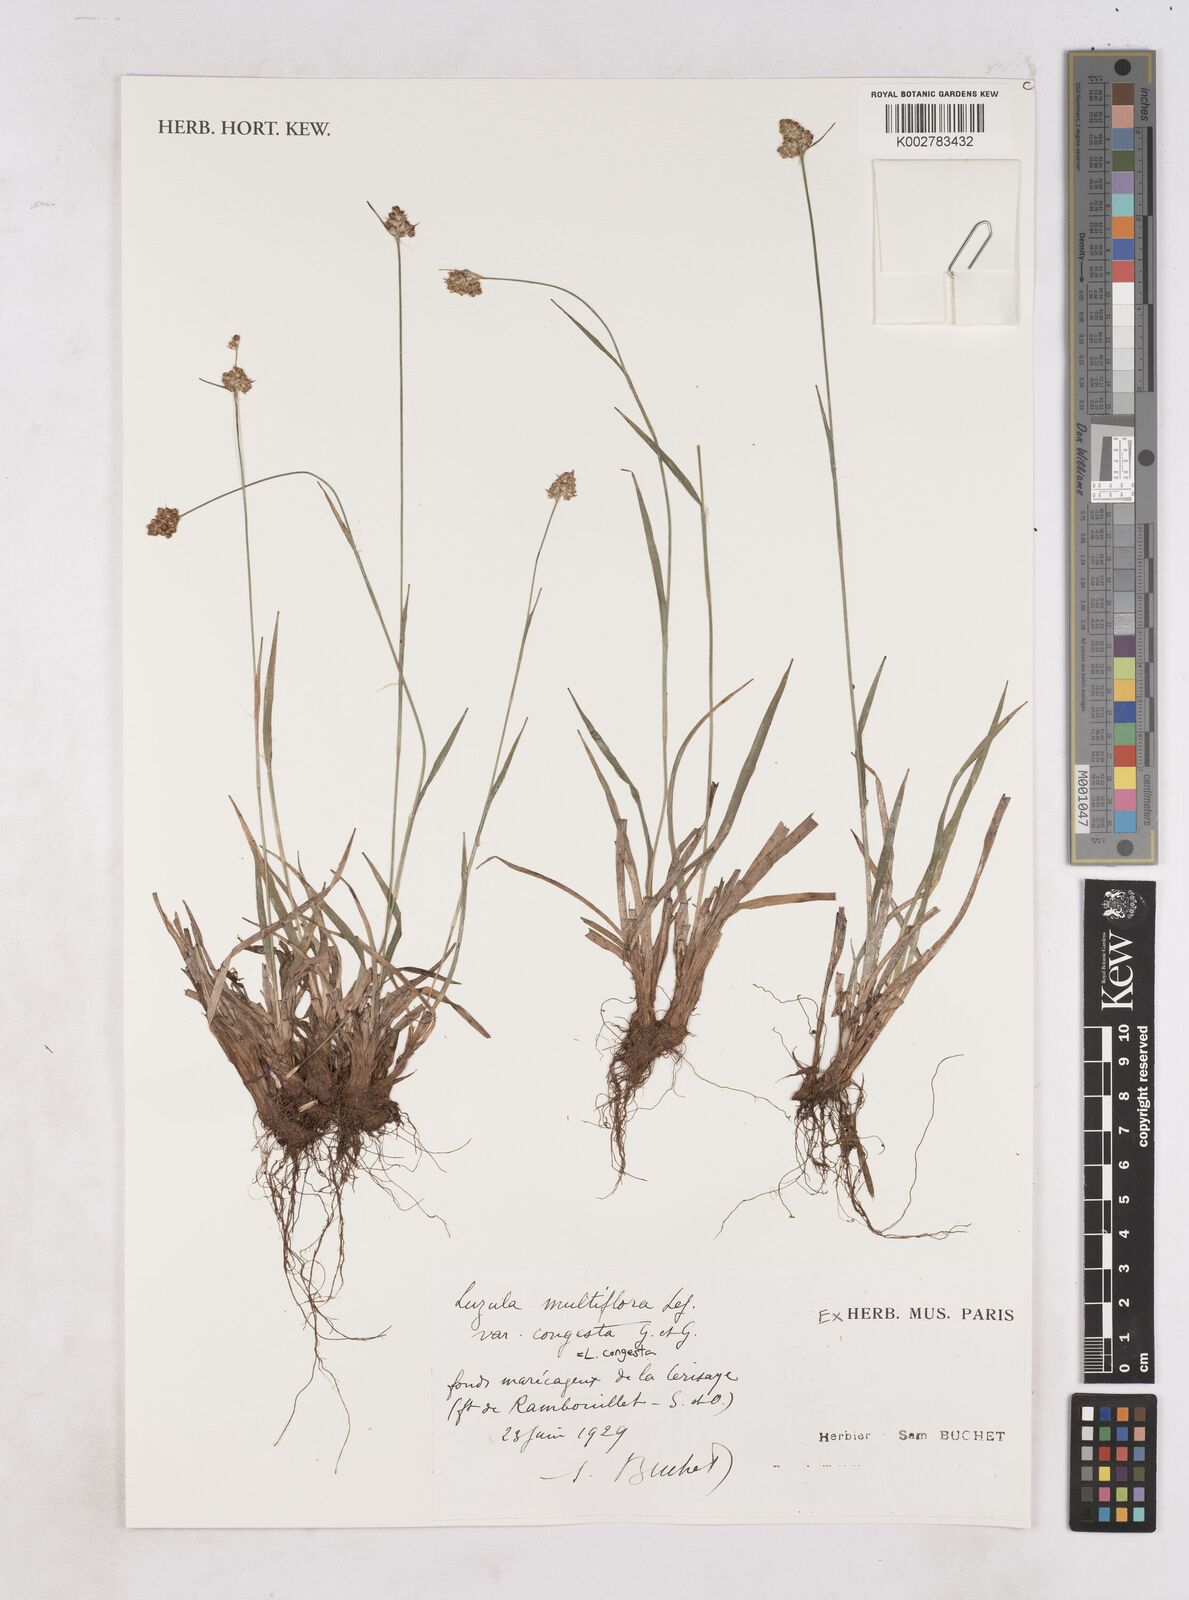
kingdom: Plantae
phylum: Tracheophyta
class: Liliopsida
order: Poales
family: Juncaceae
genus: Luzula
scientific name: Luzula congesta
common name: Heath woodrush
